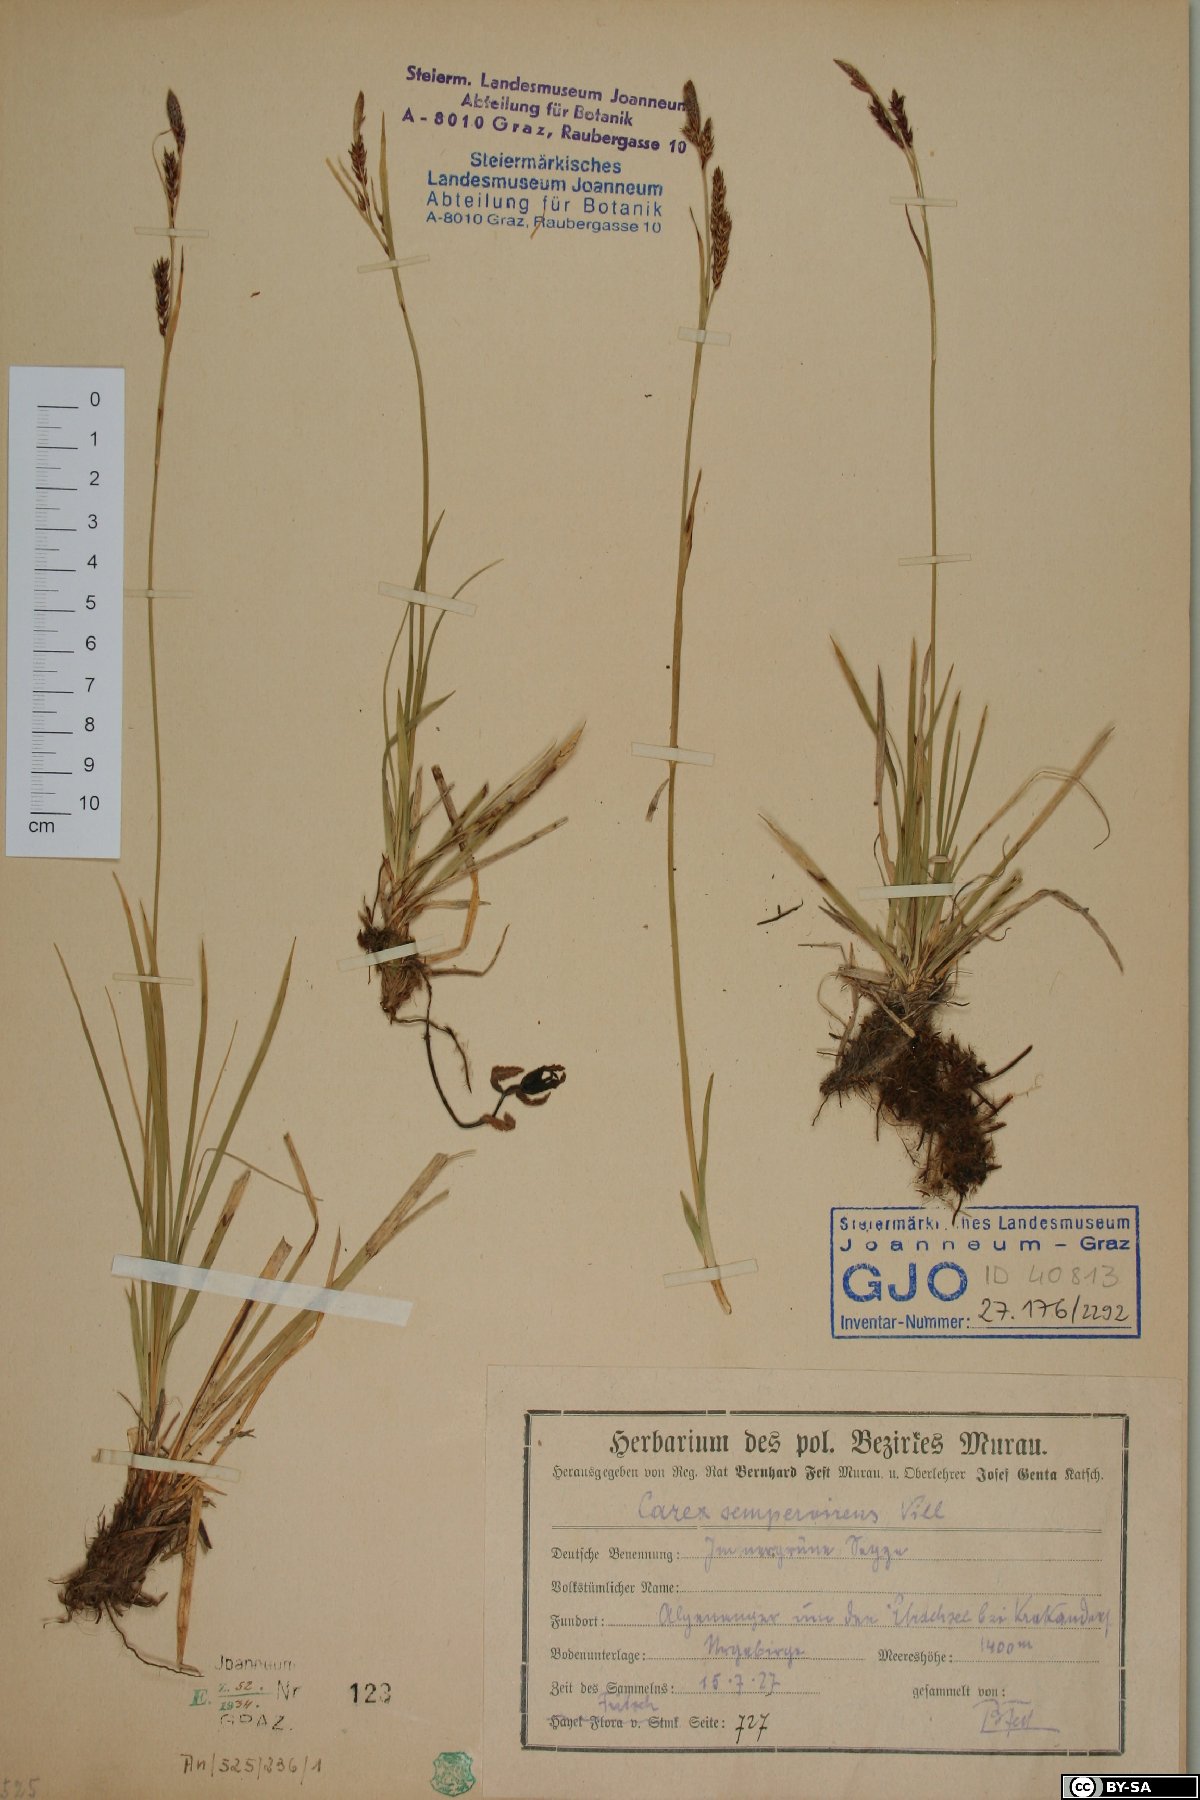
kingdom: Plantae
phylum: Tracheophyta
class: Liliopsida
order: Poales
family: Cyperaceae
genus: Carex
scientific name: Carex sempervirens
